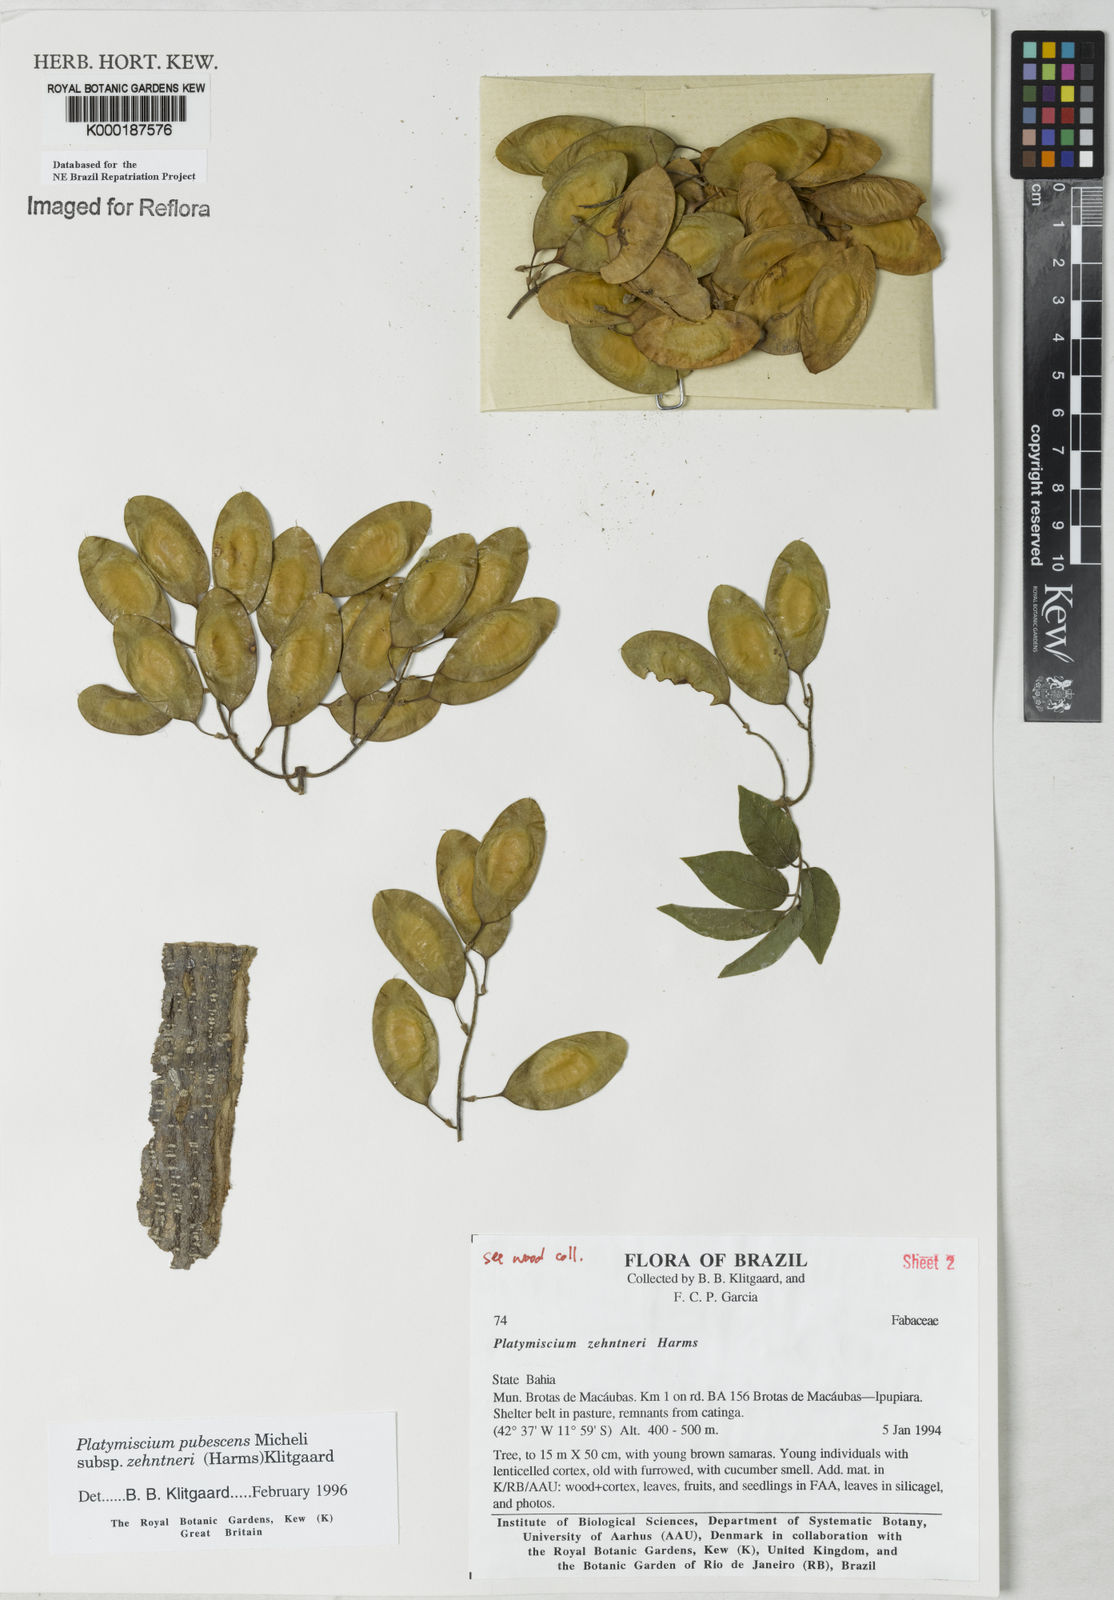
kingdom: Plantae
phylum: Tracheophyta
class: Magnoliopsida
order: Fabales
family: Fabaceae
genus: Platymiscium
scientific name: Platymiscium pubescens
